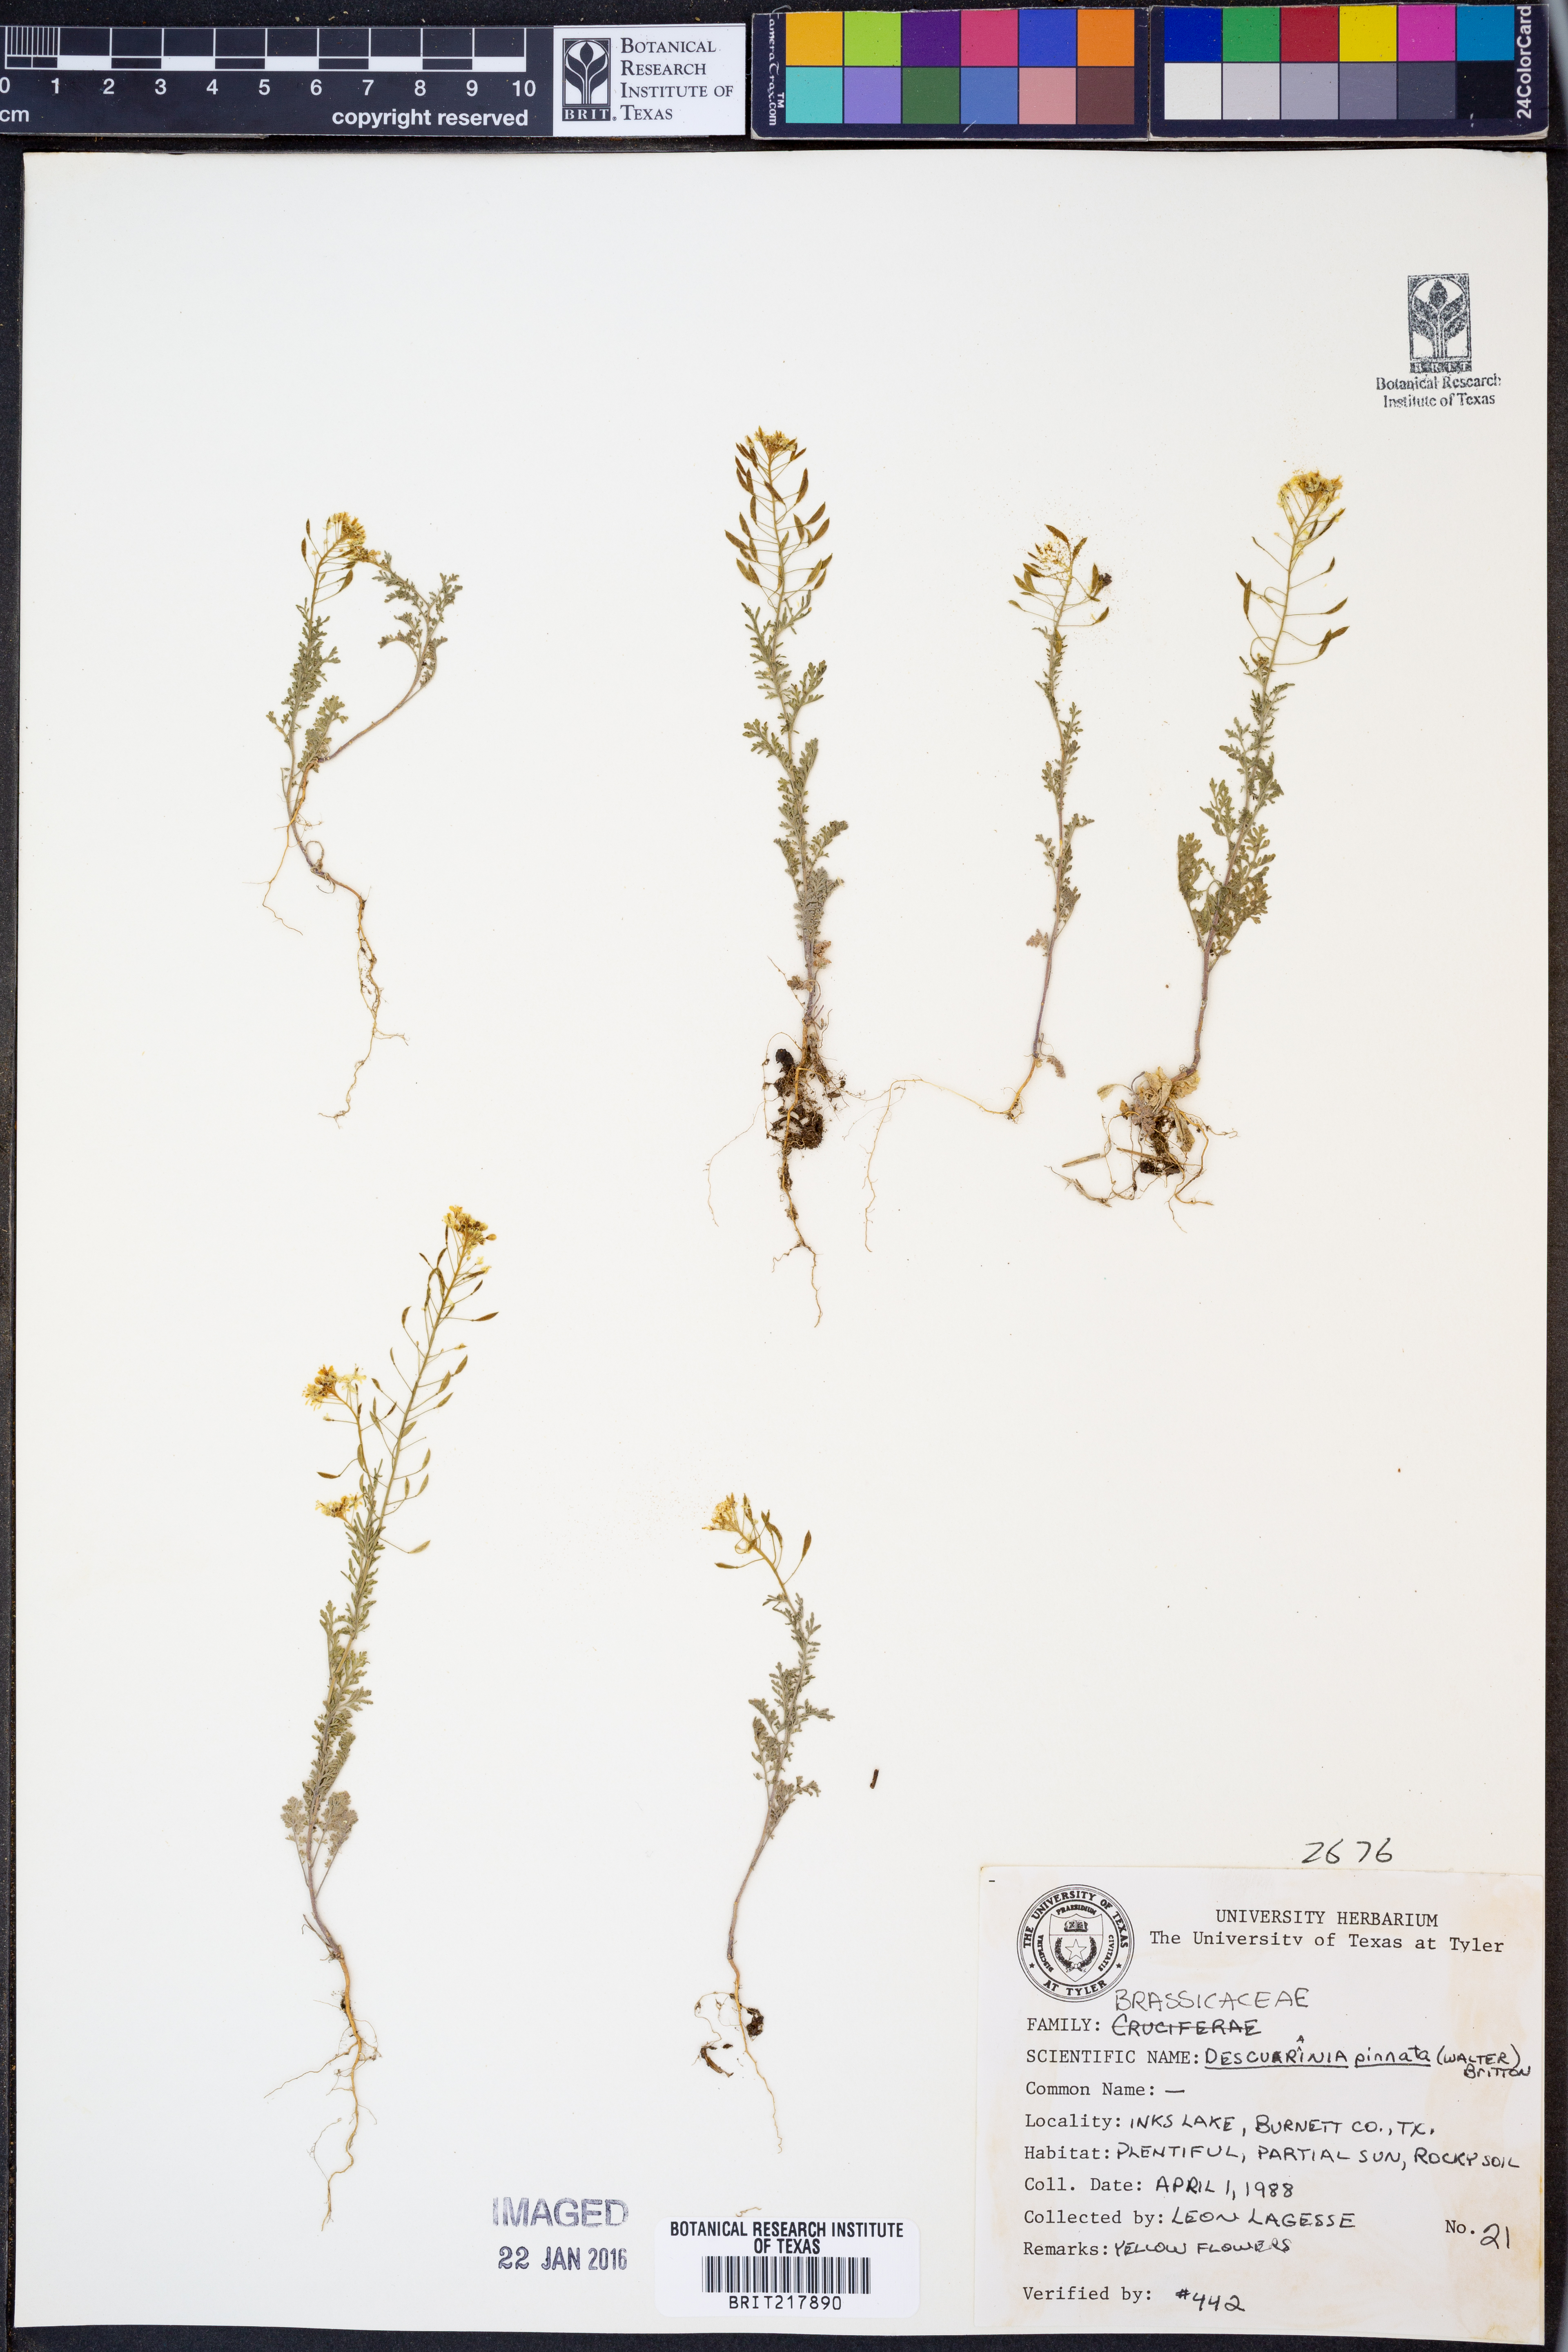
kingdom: Plantae
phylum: Tracheophyta
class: Magnoliopsida
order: Brassicales
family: Brassicaceae
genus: Descurainia
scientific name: Descurainia pinnata
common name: Western tansy mustard
